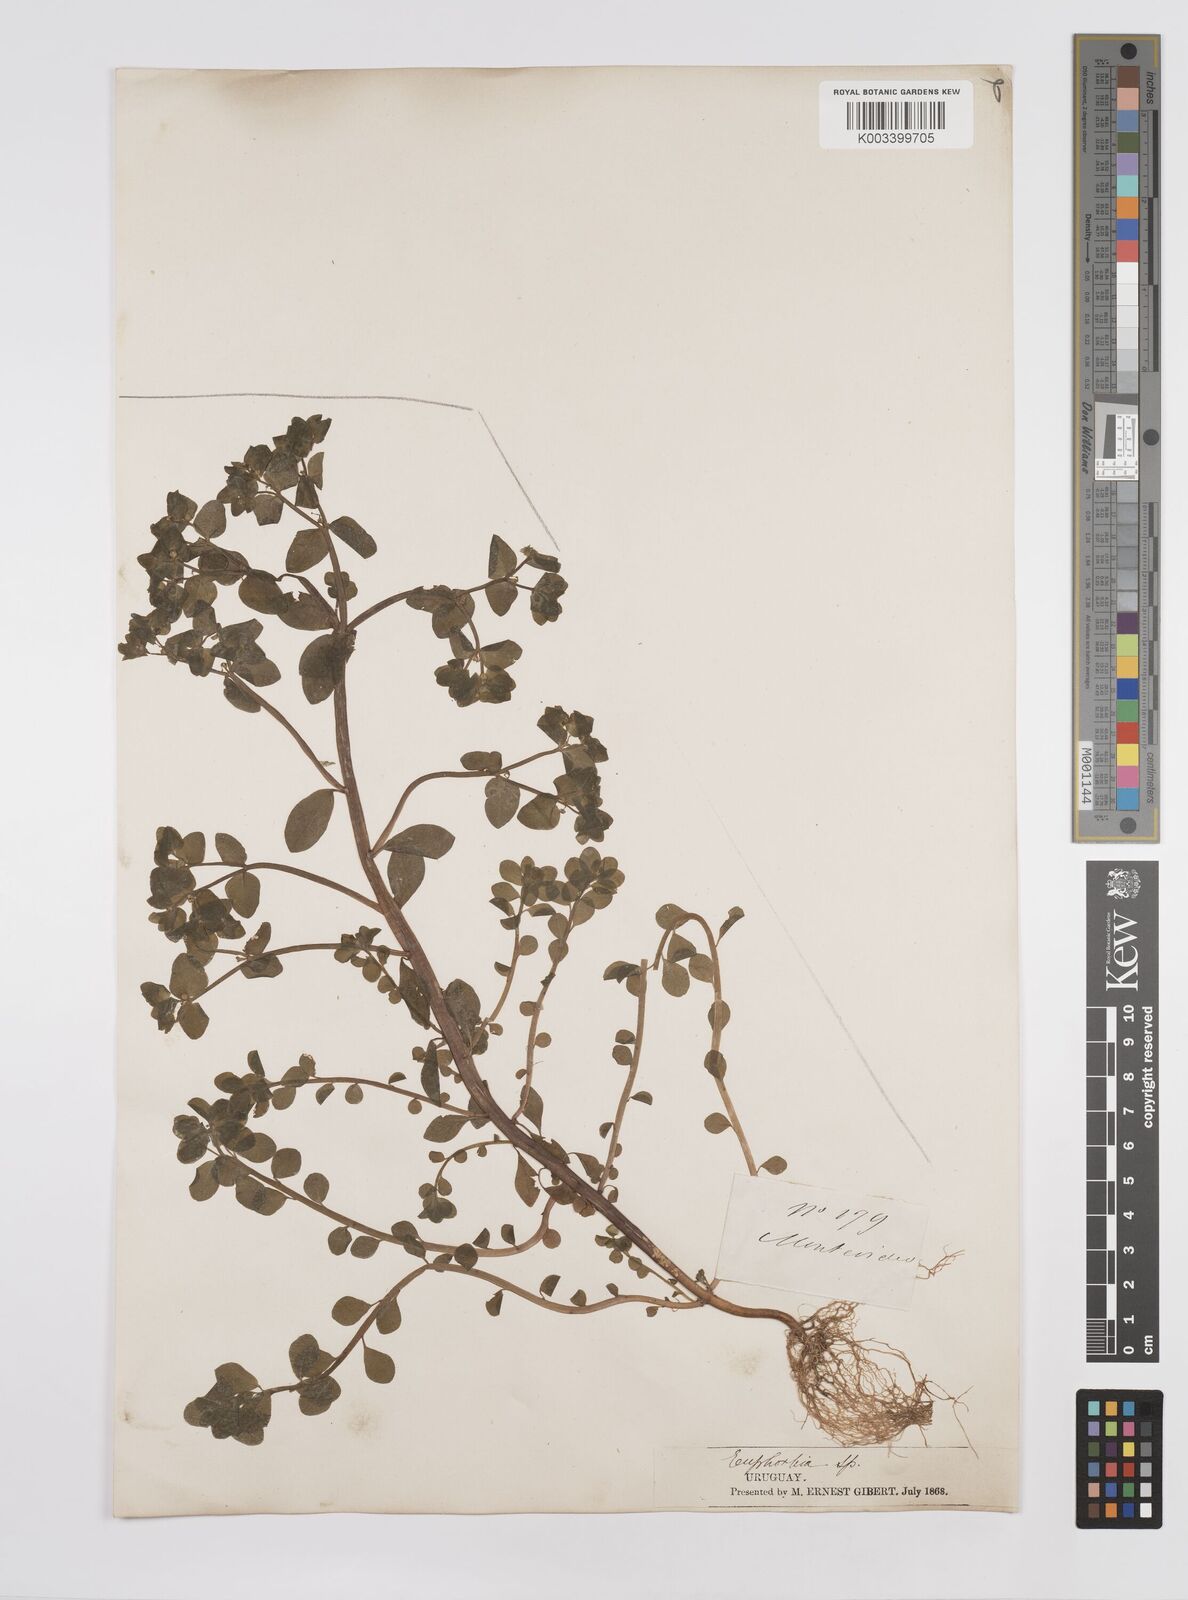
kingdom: Plantae
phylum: Tracheophyta
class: Magnoliopsida
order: Malpighiales
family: Euphorbiaceae
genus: Euphorbia
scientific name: Euphorbia peplus
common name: Petty spurge
